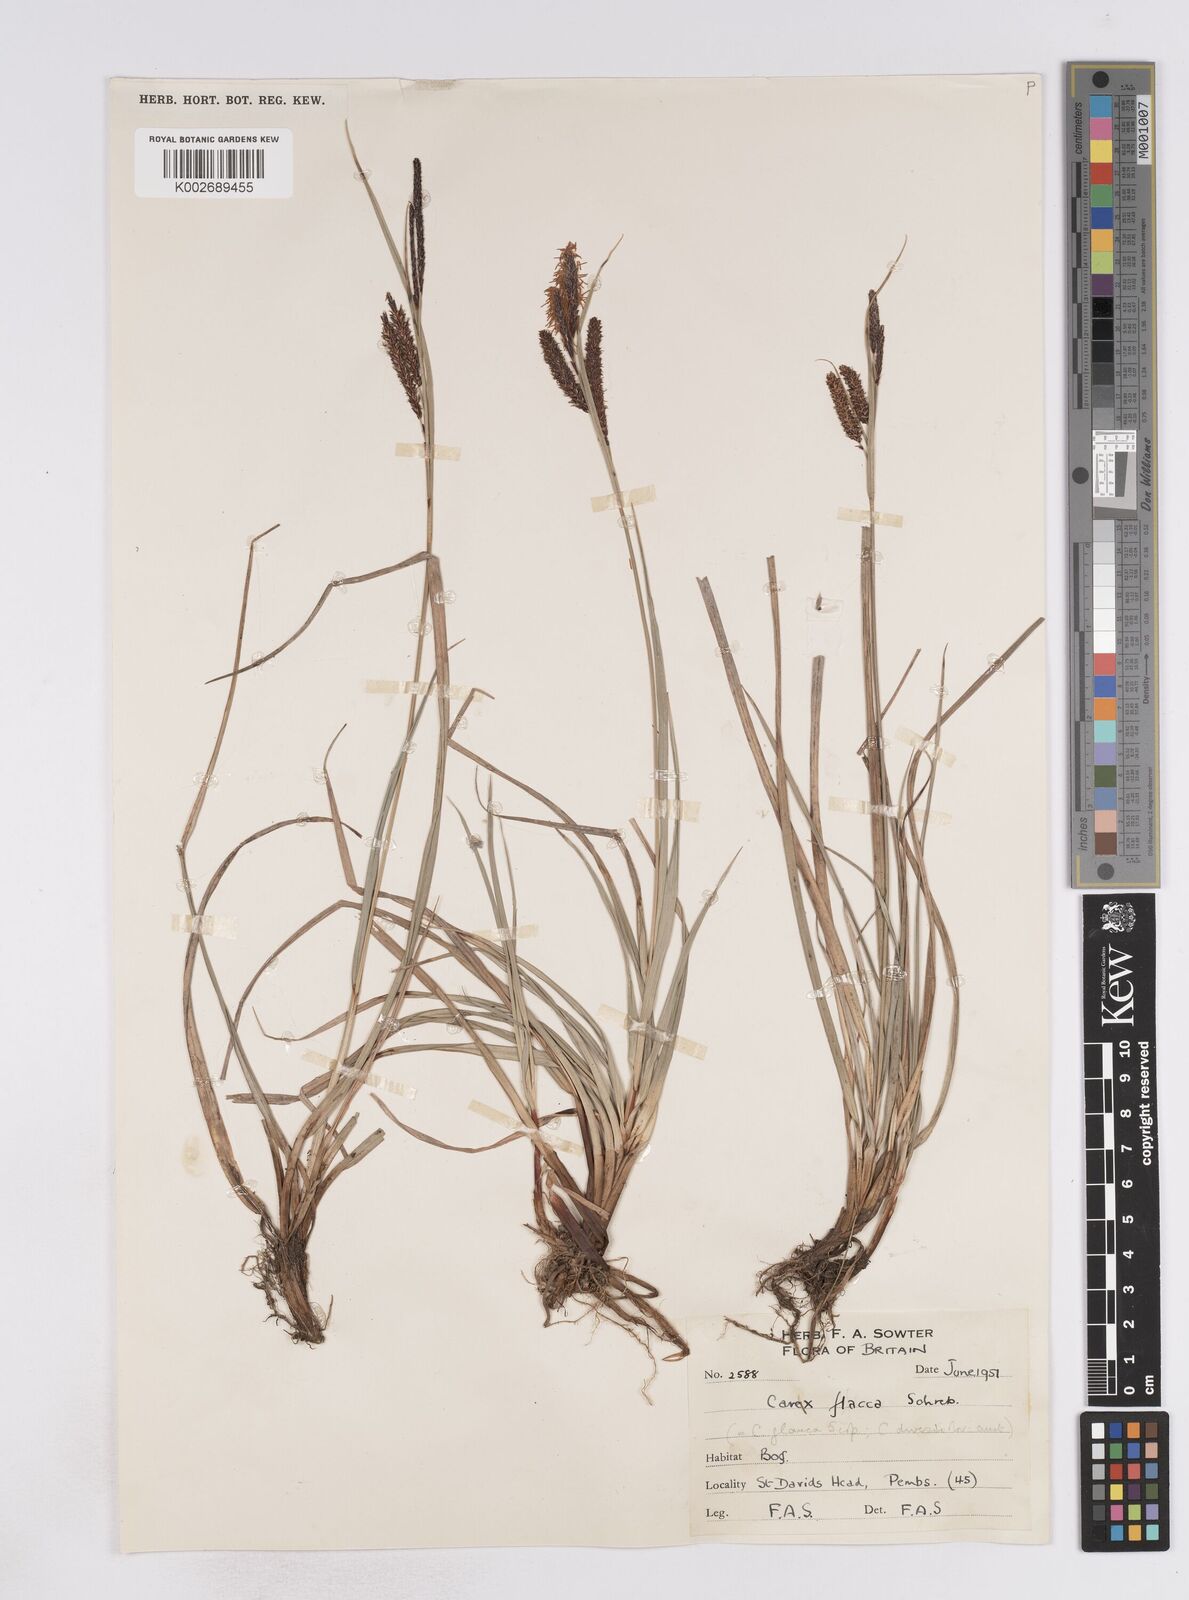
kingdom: Plantae
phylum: Tracheophyta
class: Liliopsida
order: Poales
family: Cyperaceae
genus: Carex
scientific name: Carex flacca
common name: Glaucous sedge
